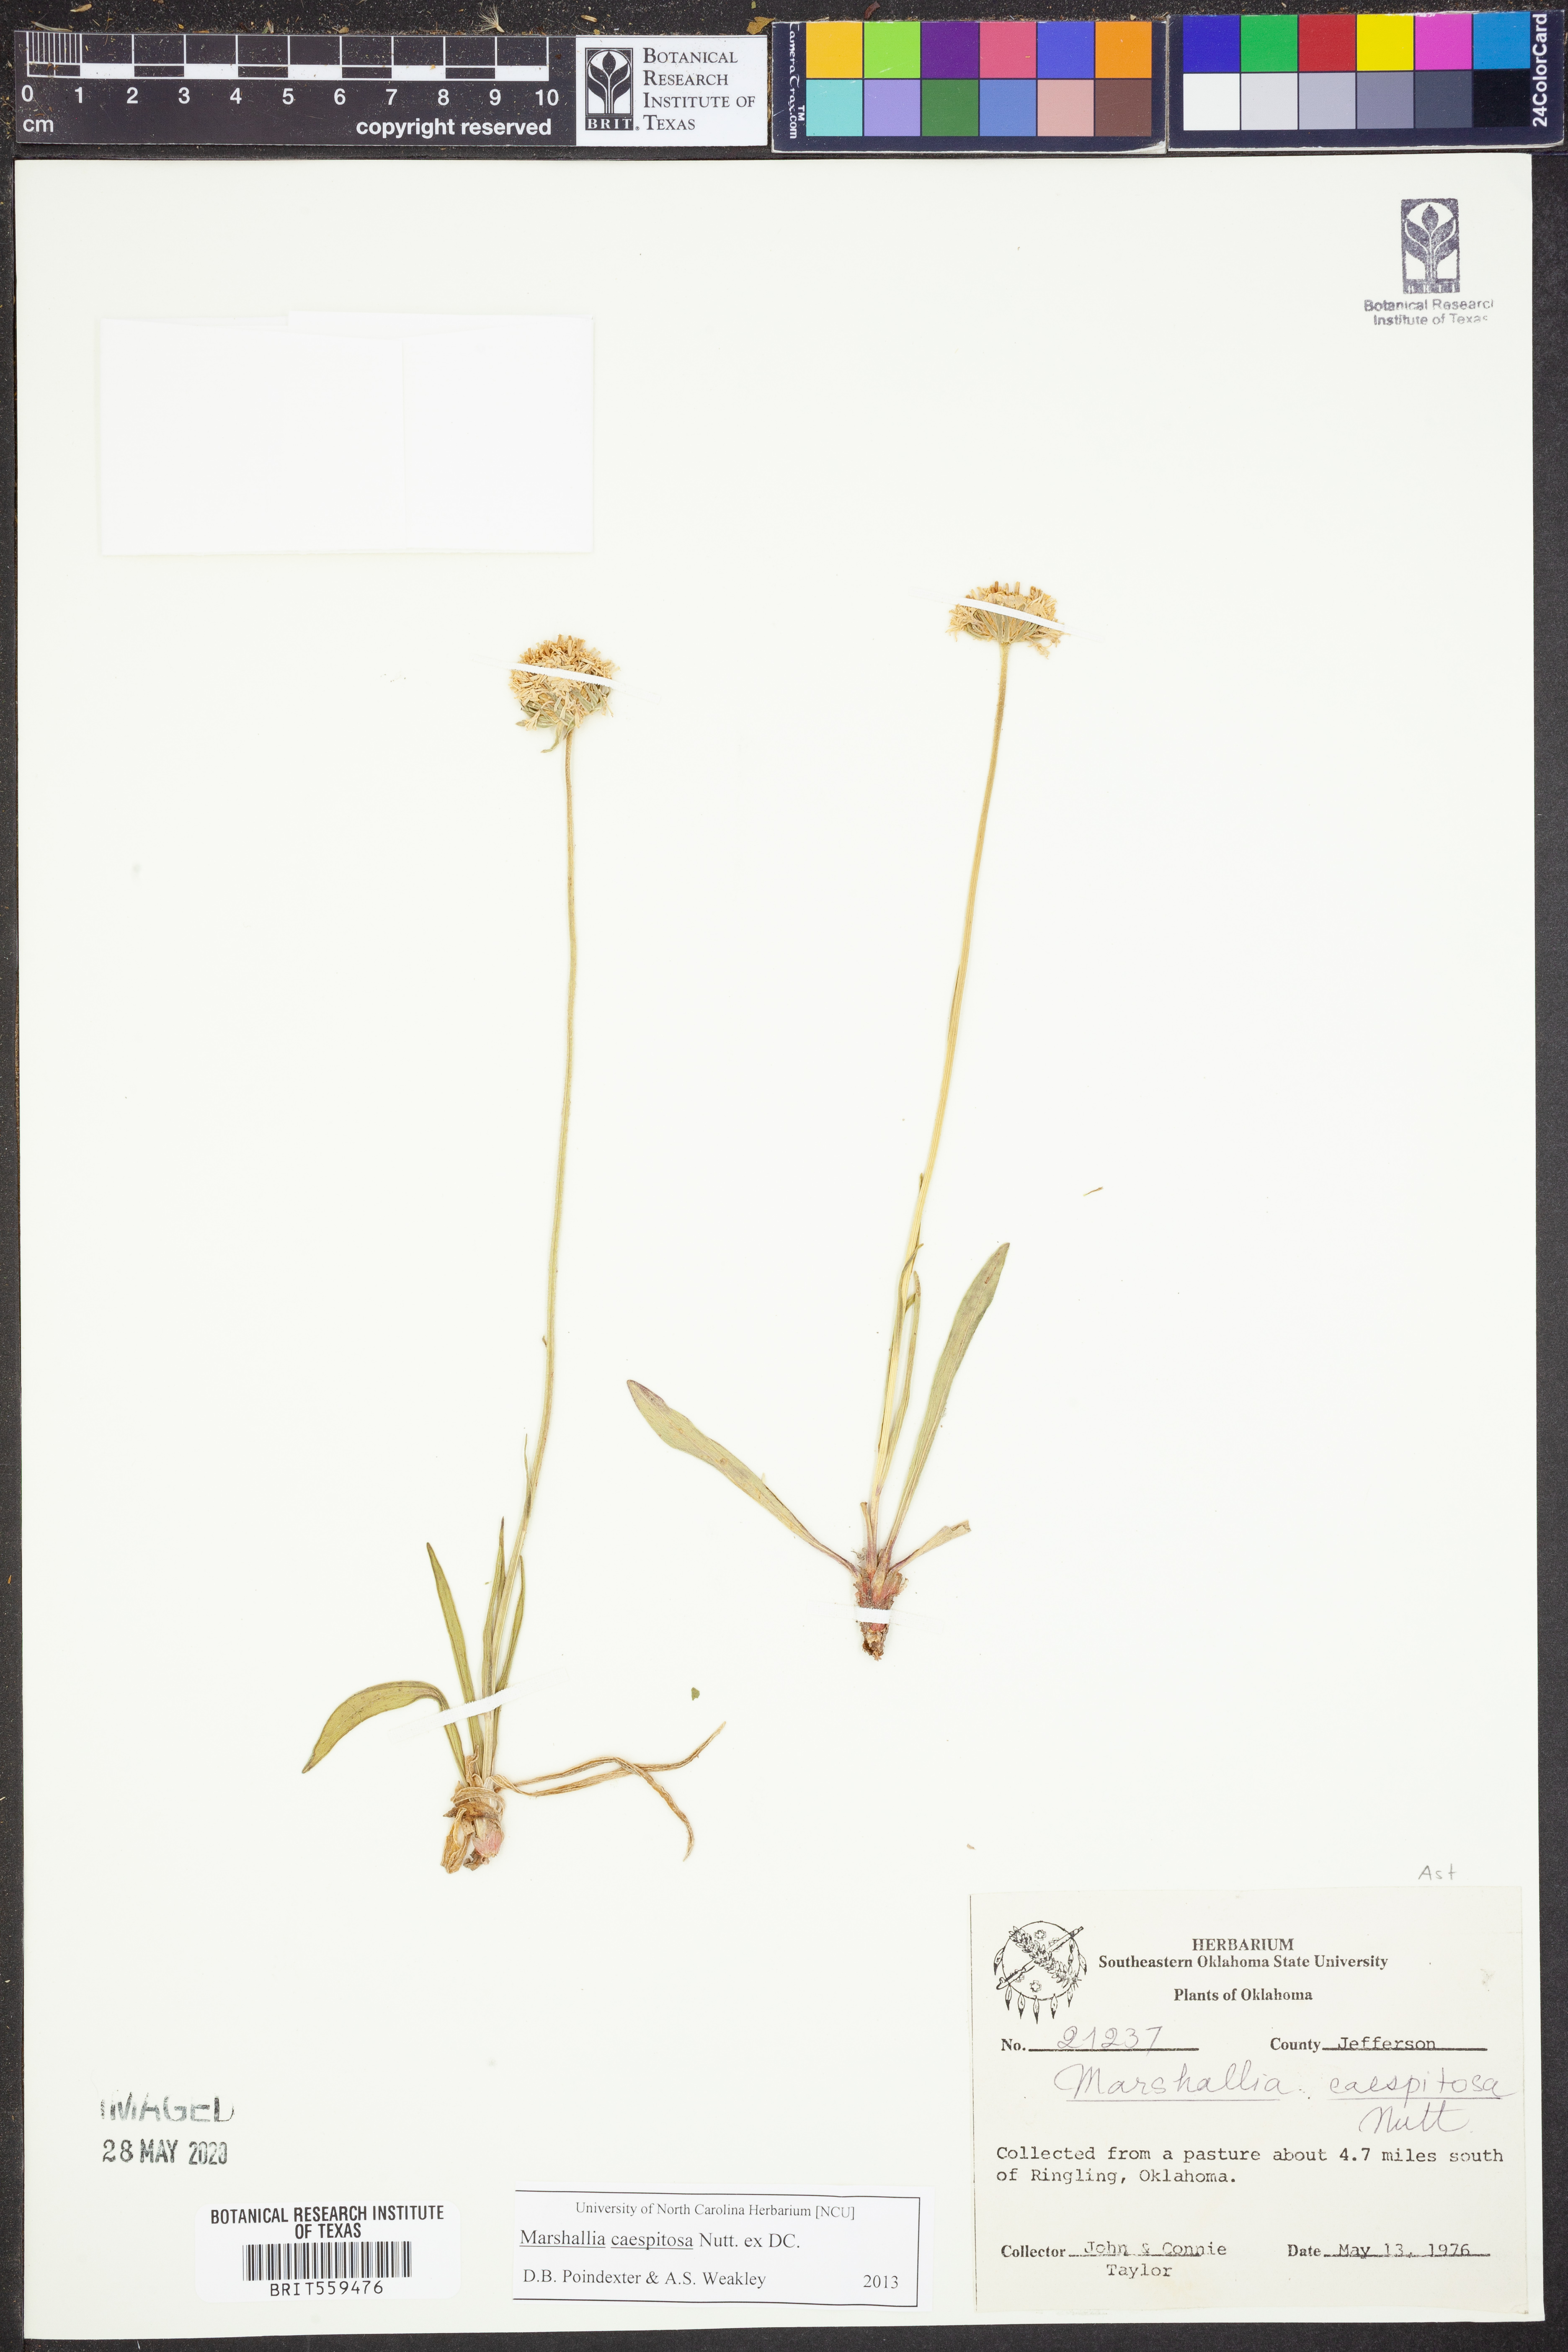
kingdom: Plantae
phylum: Tracheophyta
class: Magnoliopsida
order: Asterales
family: Asteraceae
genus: Marshallia
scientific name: Marshallia caespitosa
